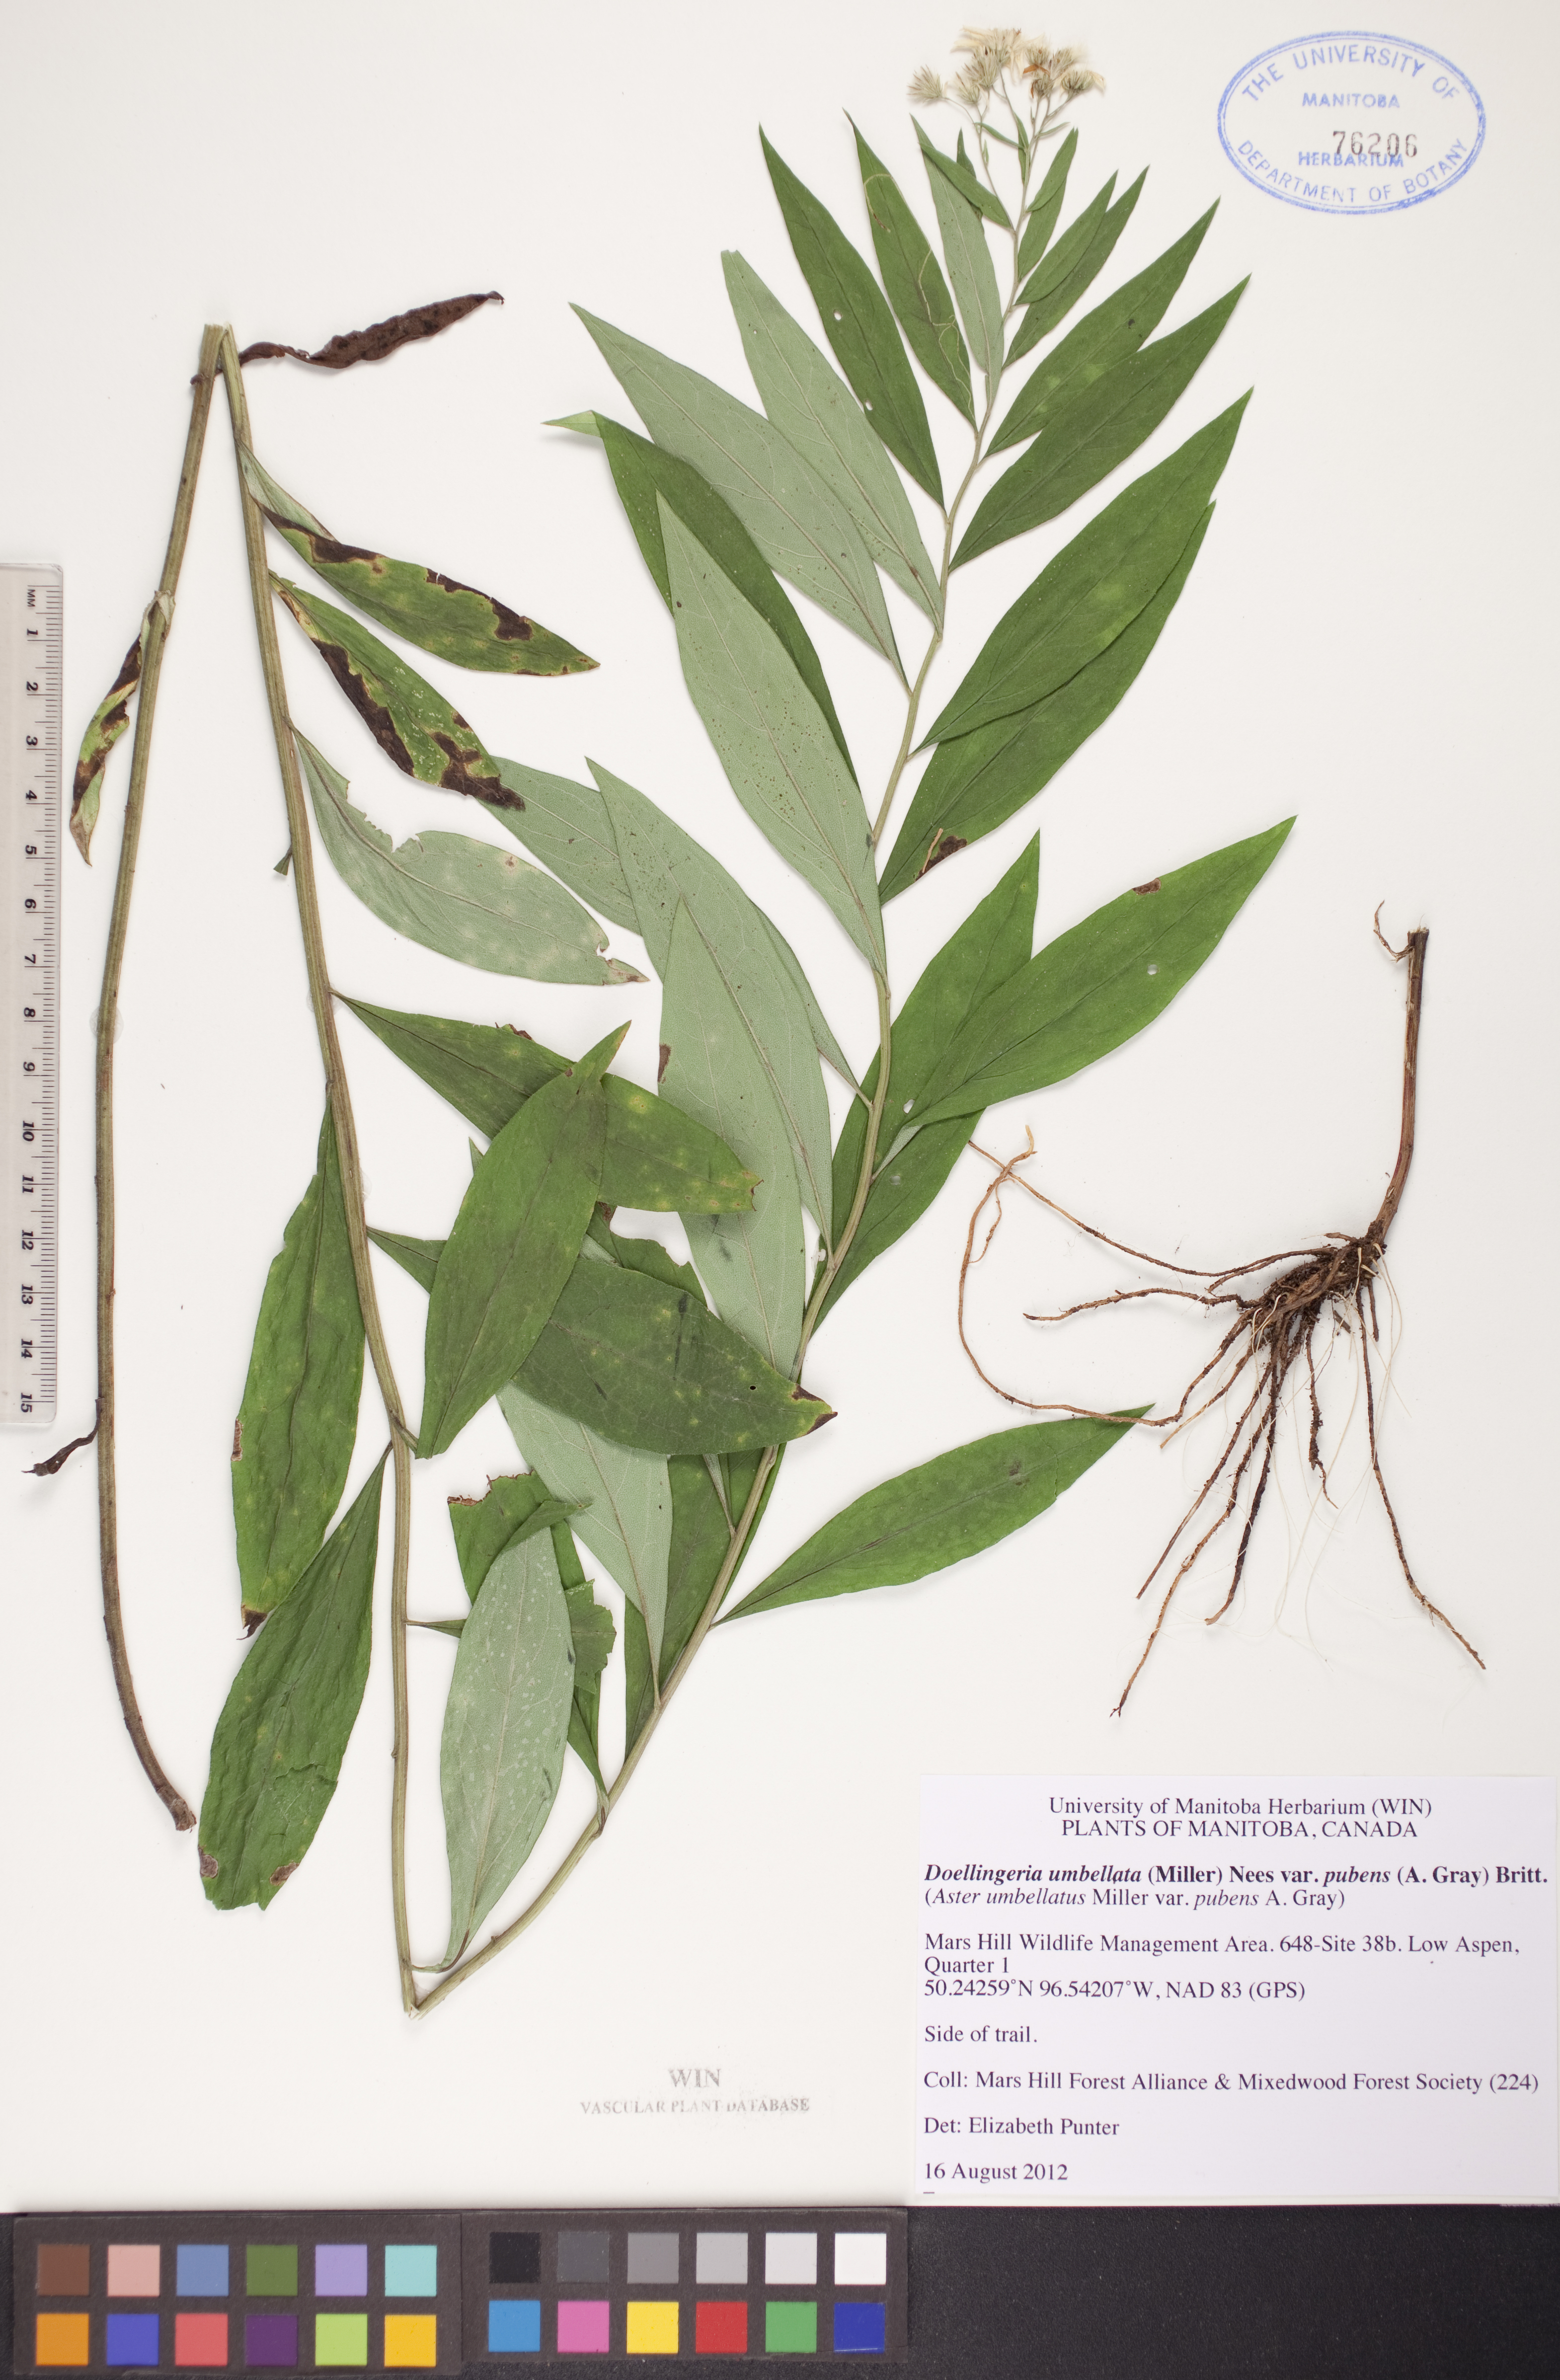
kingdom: Plantae
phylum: Tracheophyta
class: Magnoliopsida
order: Asterales
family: Asteraceae
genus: Doellingeria
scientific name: Doellingeria umbellata
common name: Flat-top white aster
